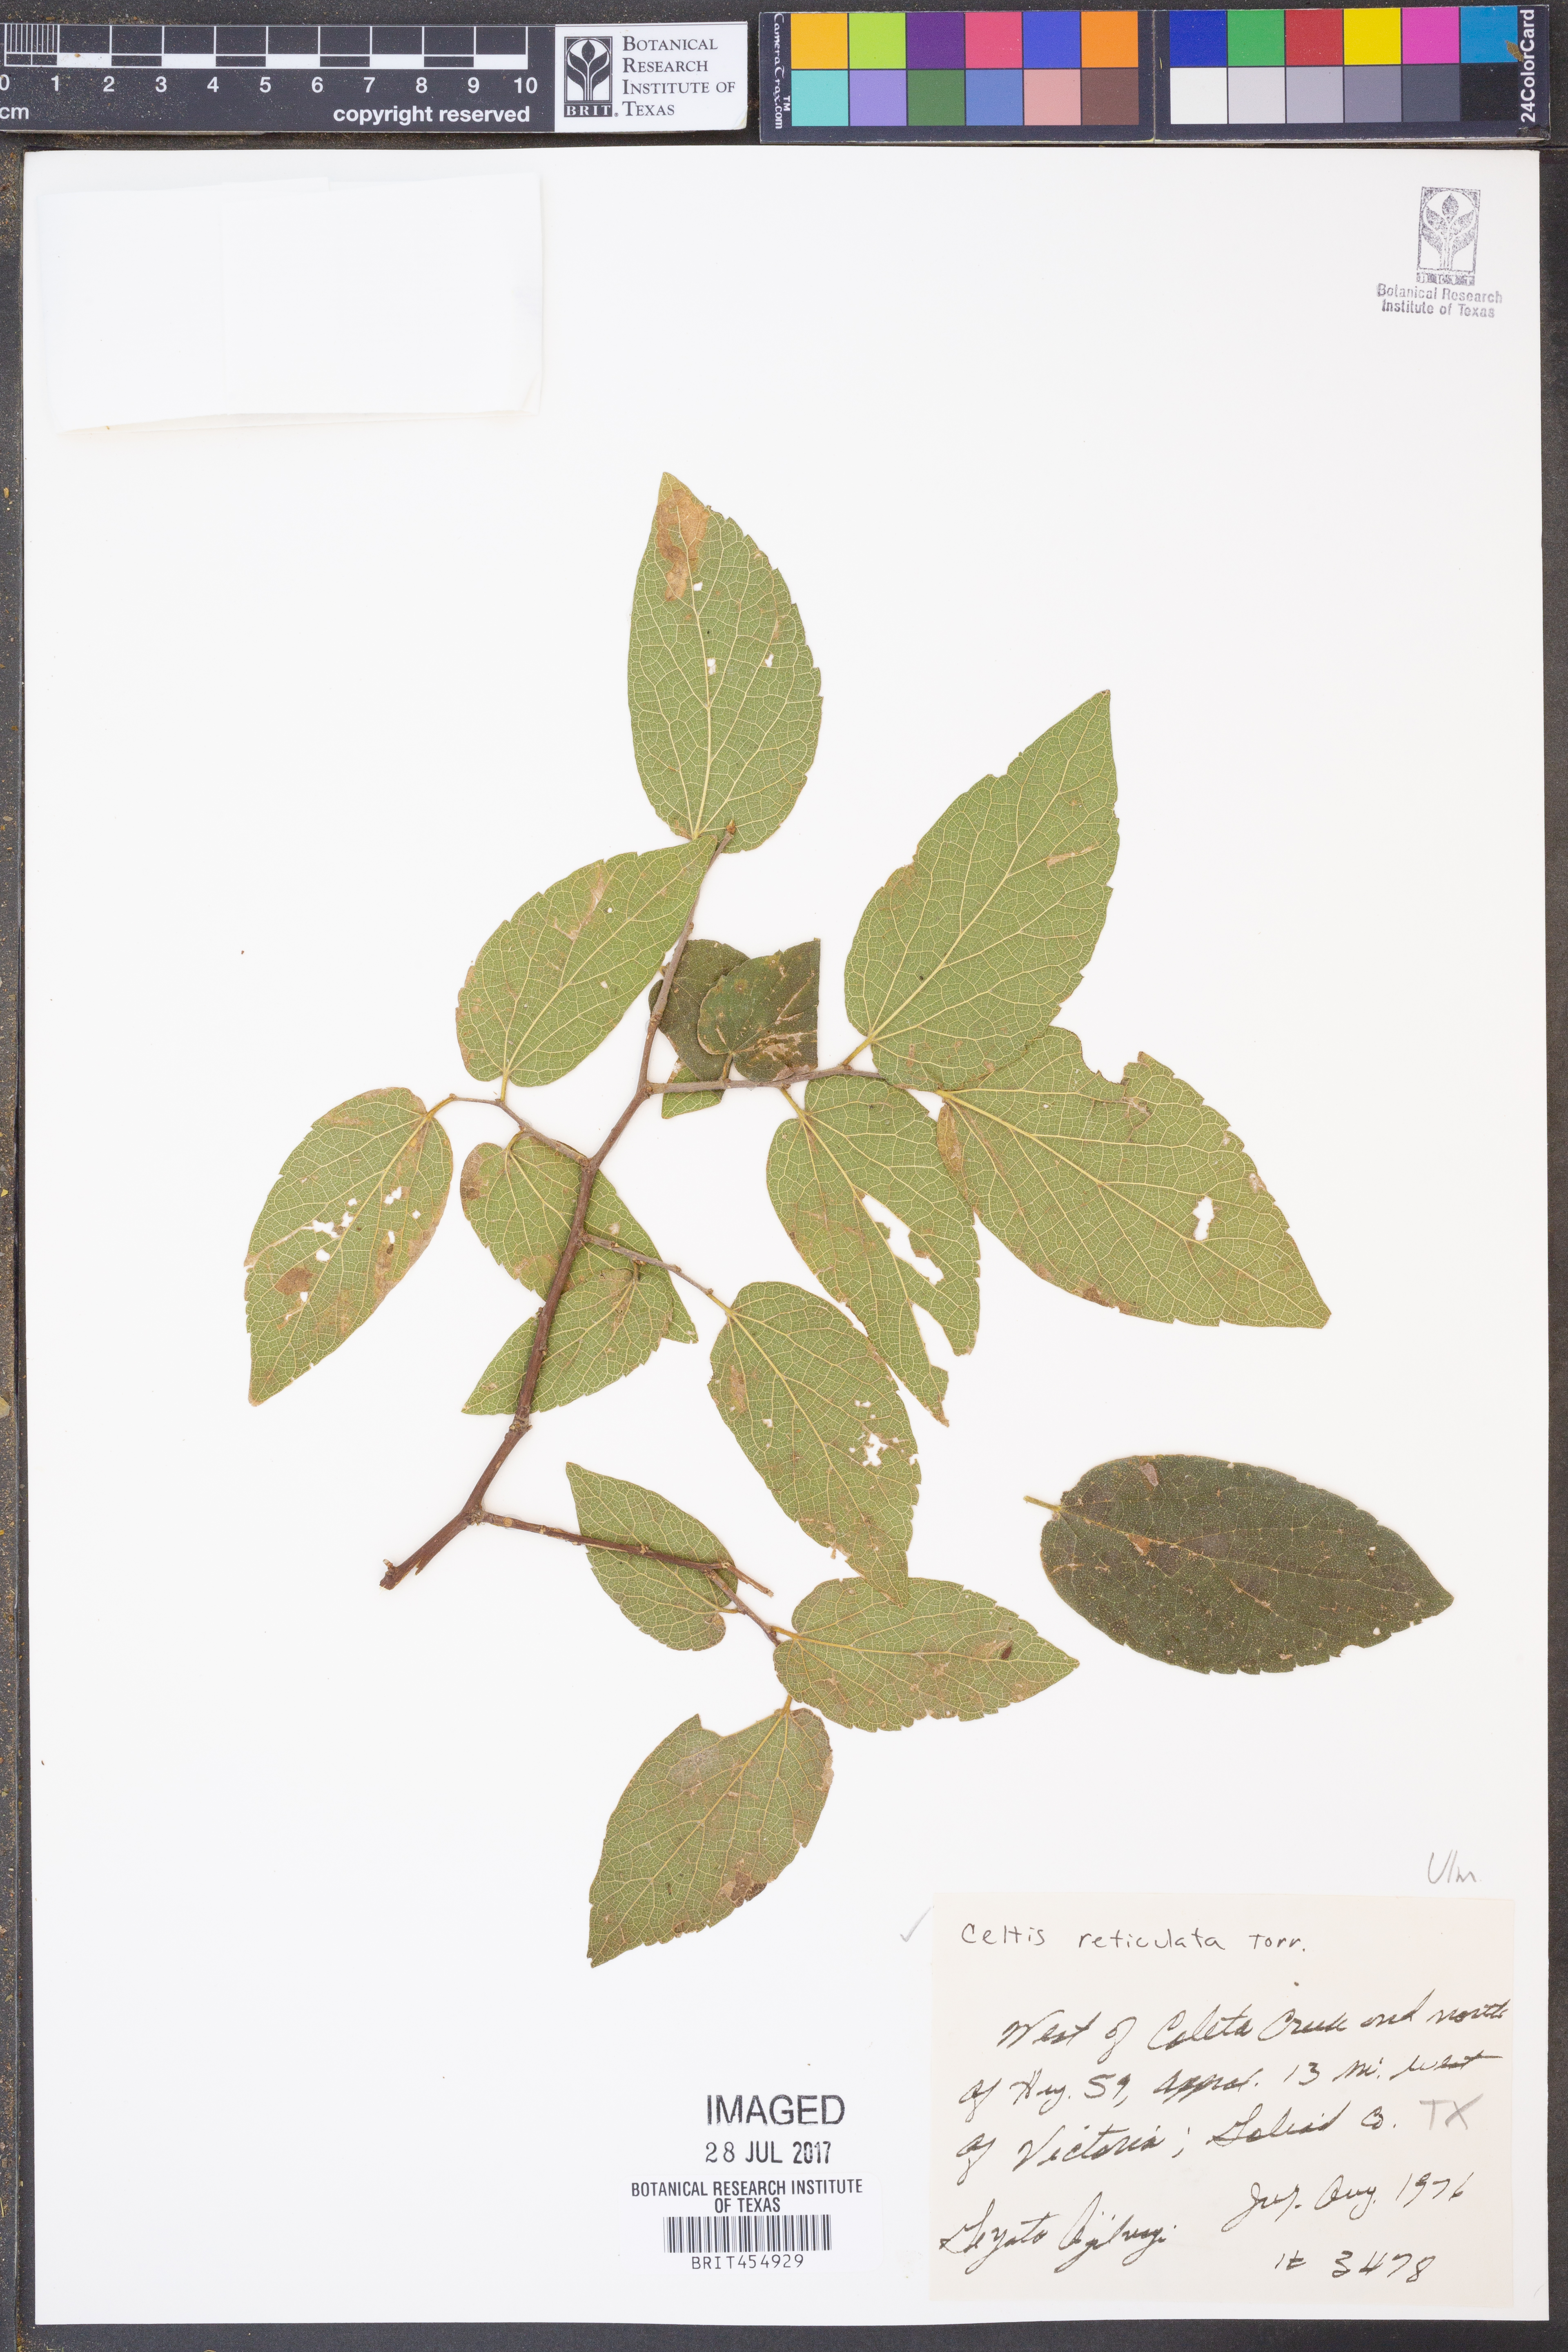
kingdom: Plantae
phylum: Tracheophyta
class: Magnoliopsida
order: Rosales
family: Cannabaceae
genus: Celtis
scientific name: Celtis reticulata
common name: Netleaf hackberry
